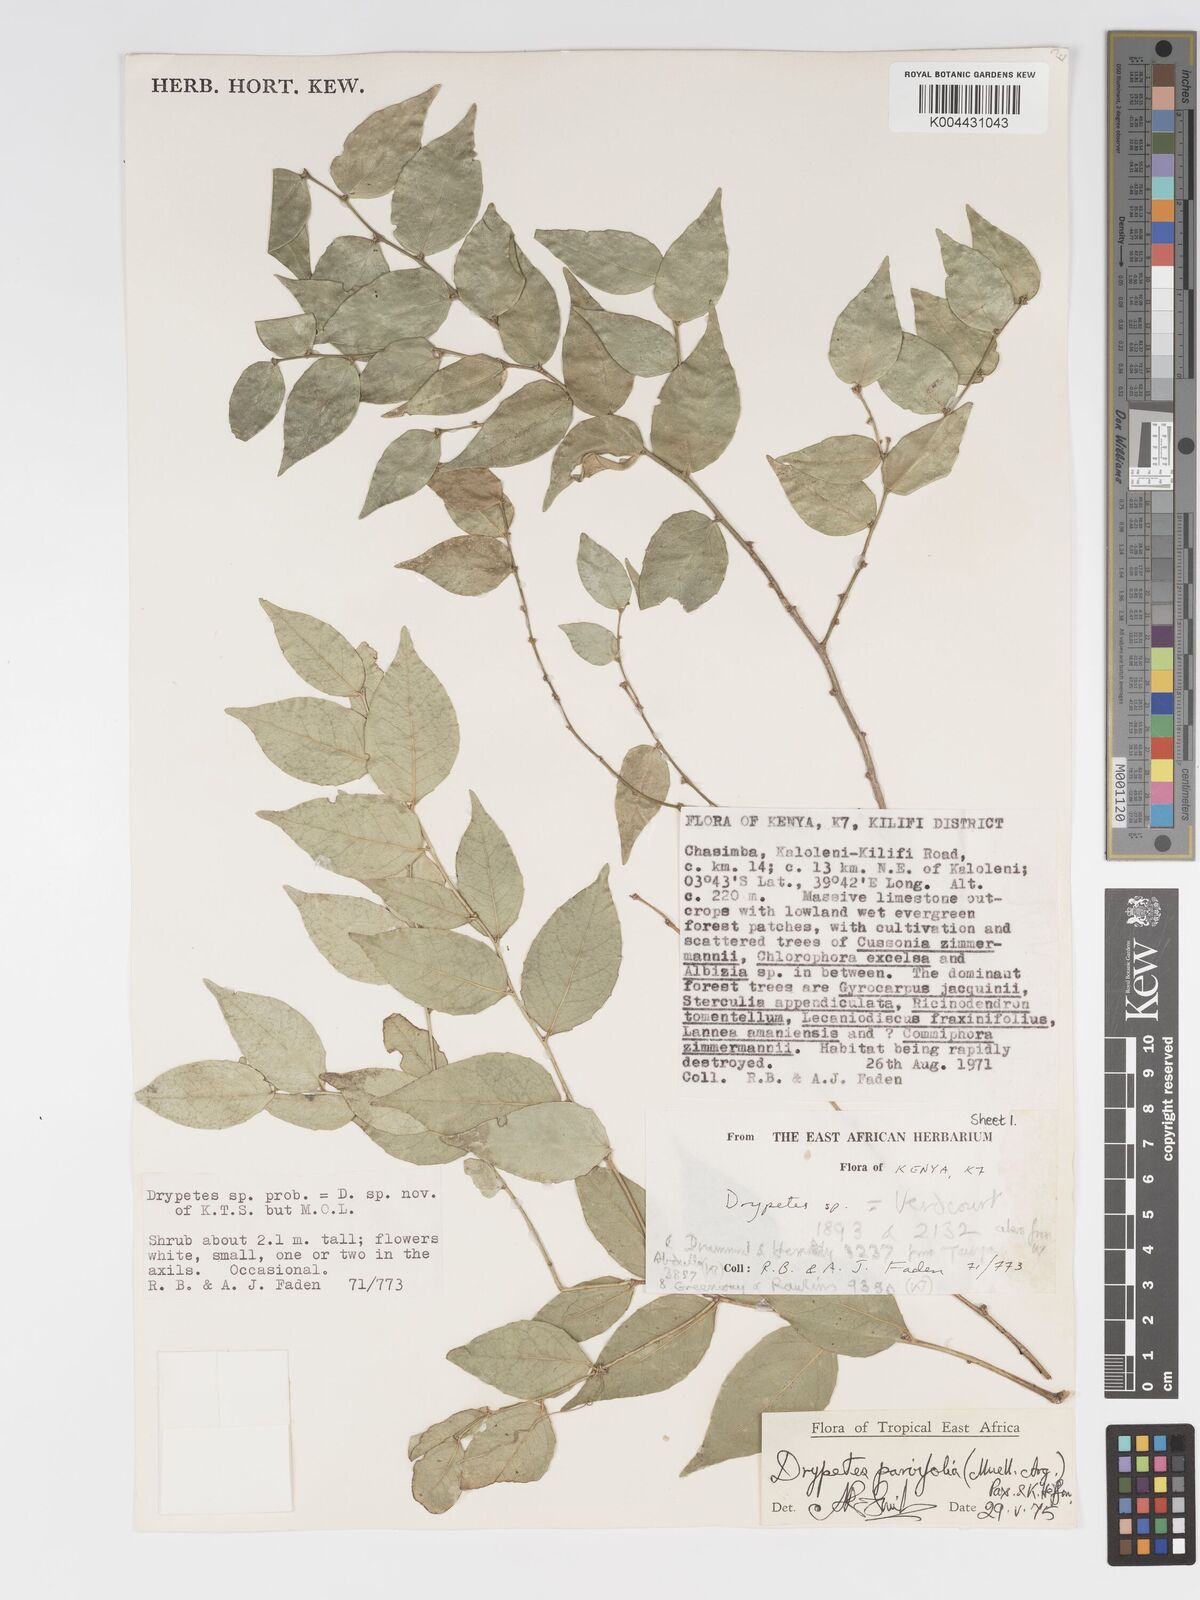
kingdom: Plantae
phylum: Tracheophyta
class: Magnoliopsida
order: Malpighiales
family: Putranjivaceae
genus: Drypetes
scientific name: Drypetes parvifolia
